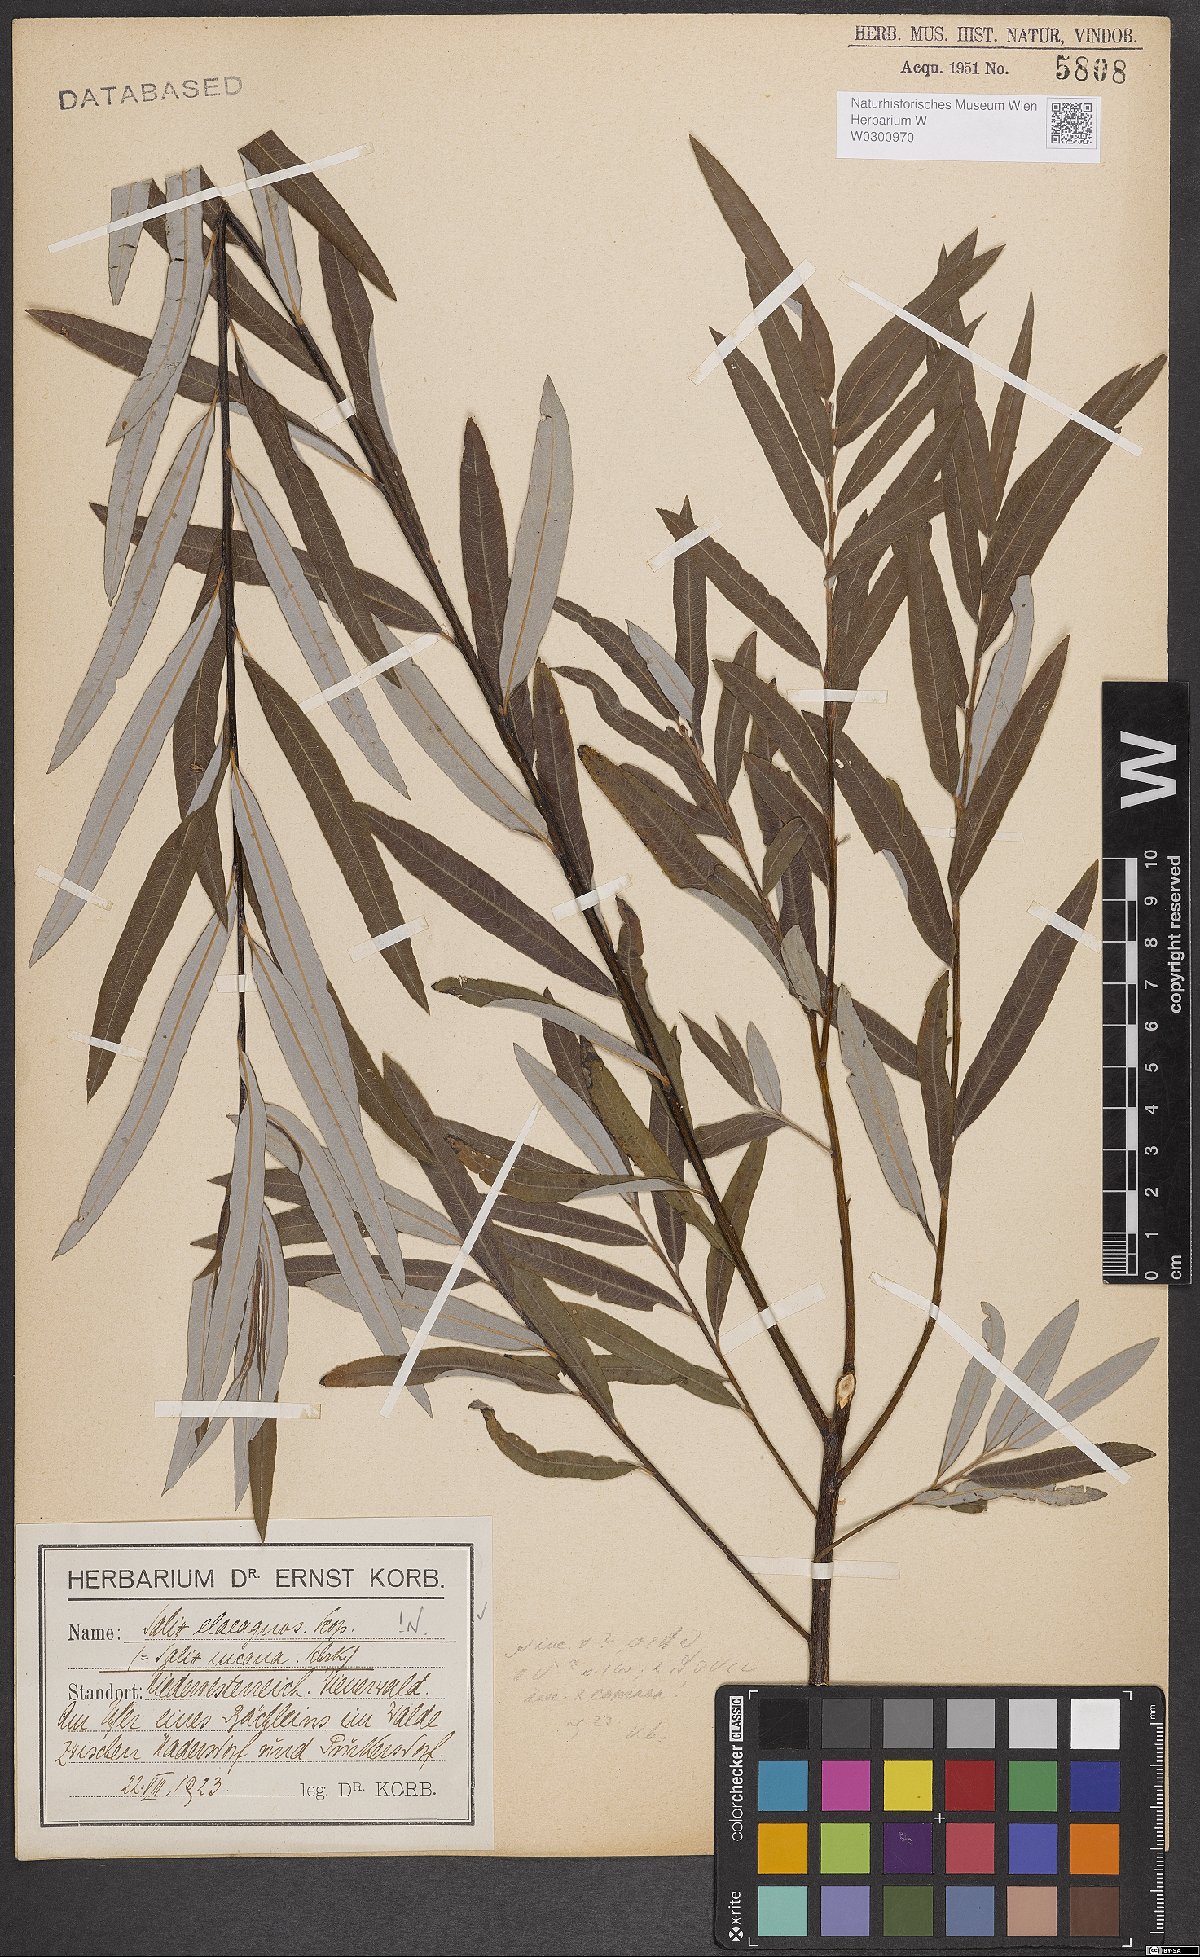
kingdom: Plantae
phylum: Tracheophyta
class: Magnoliopsida
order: Malpighiales
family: Salicaceae
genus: Salix
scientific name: Salix eleagnos
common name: Elaeagnus willow
